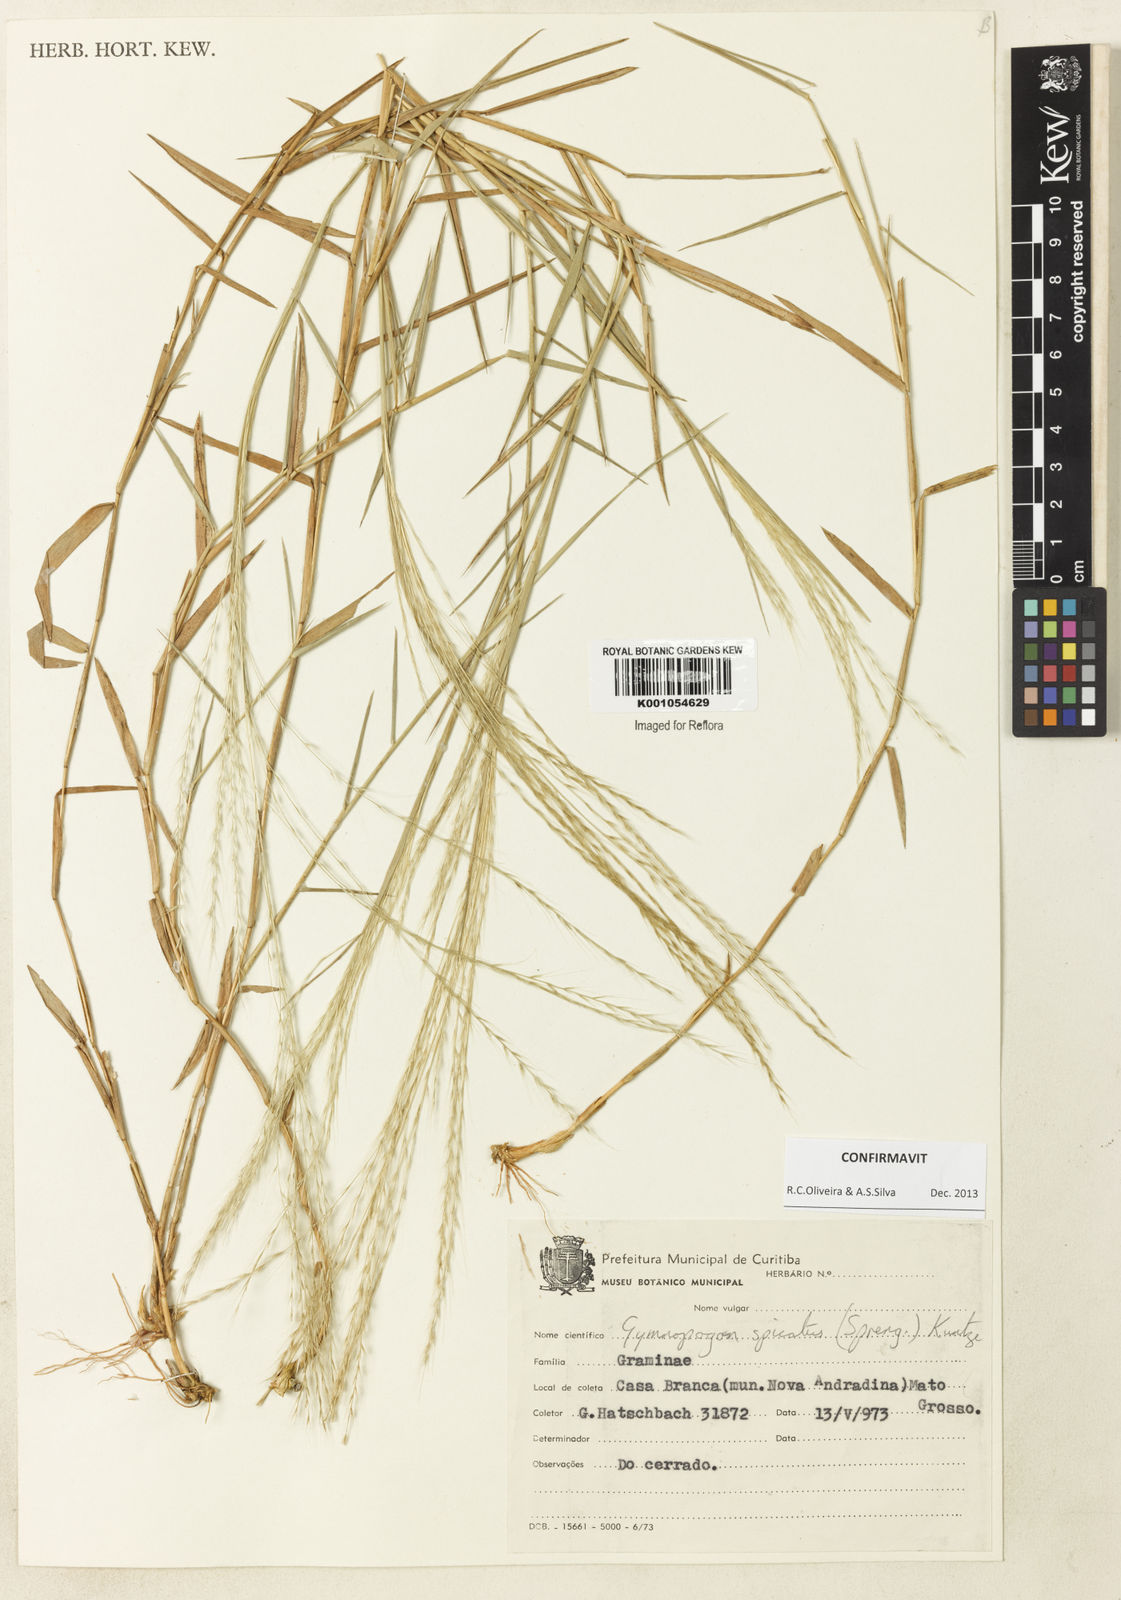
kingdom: Plantae
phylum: Tracheophyta
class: Liliopsida
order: Poales
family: Poaceae
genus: Gymnopogon
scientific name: Gymnopogon spicatus
